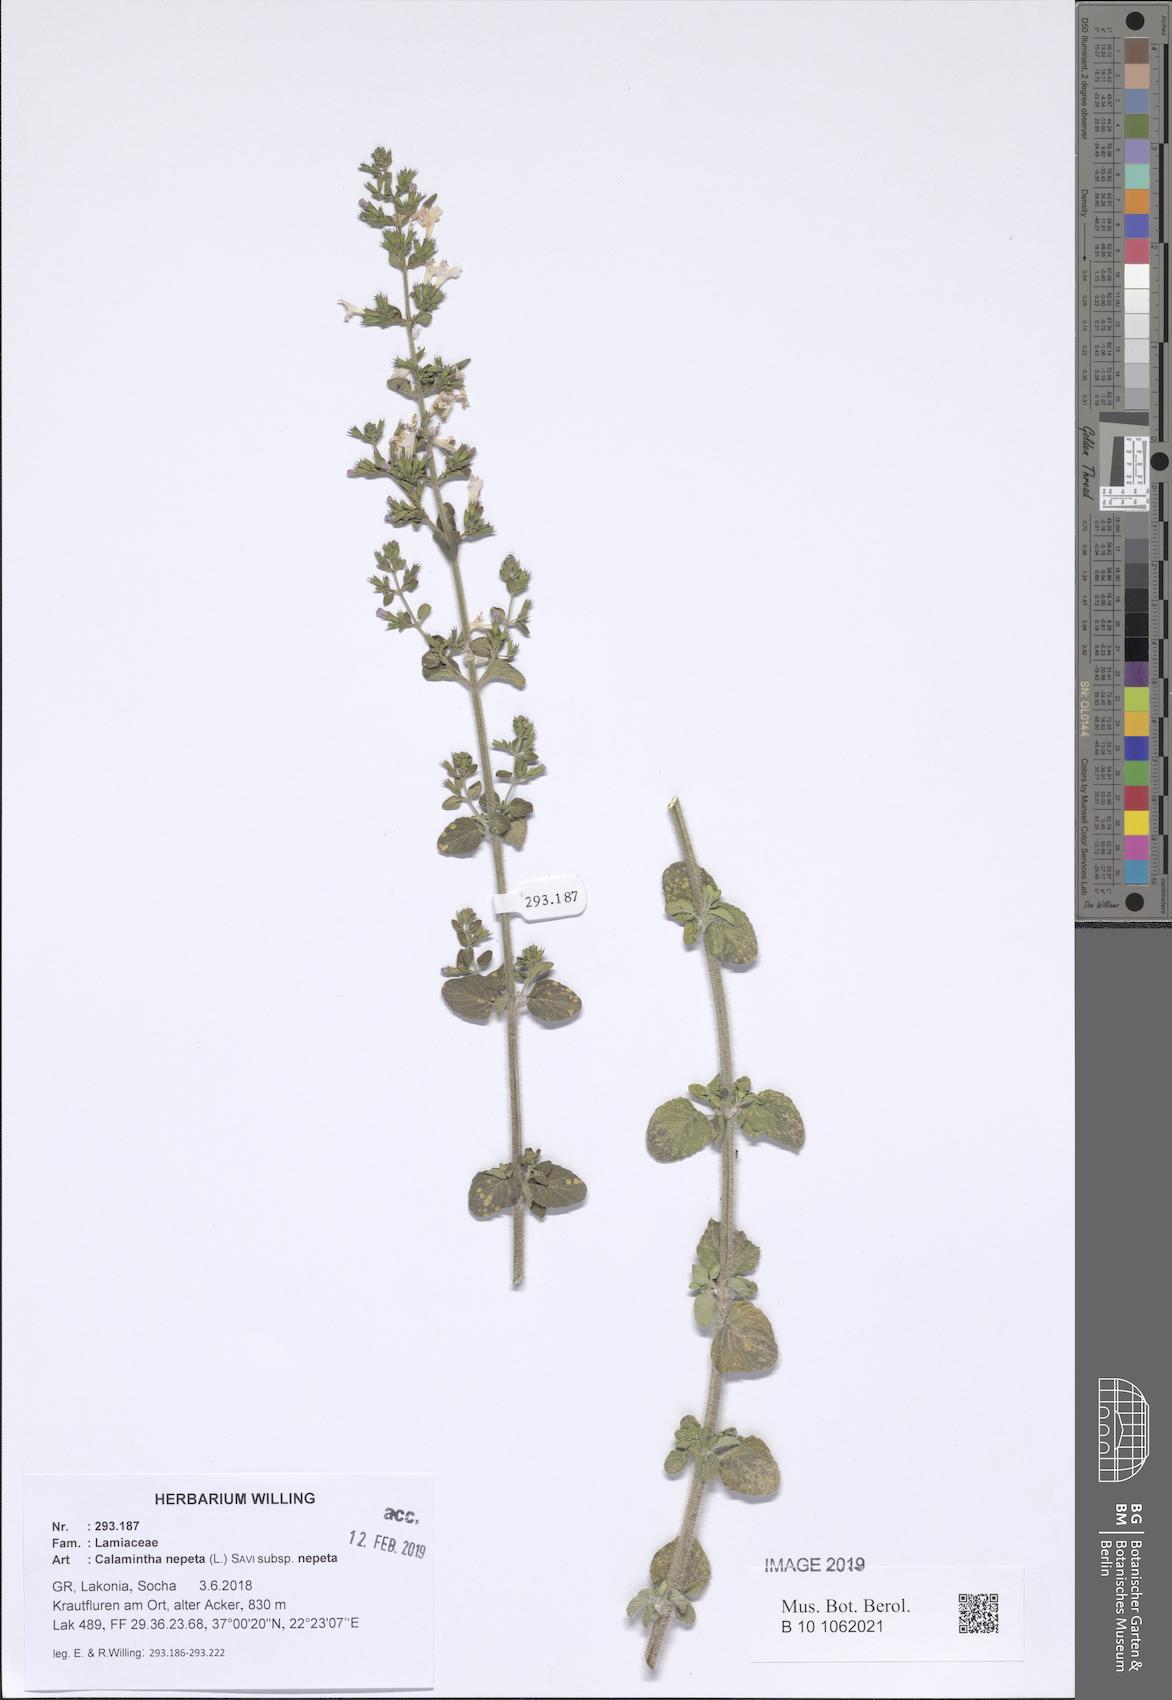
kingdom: Plantae
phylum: Tracheophyta
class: Magnoliopsida
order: Lamiales
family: Lamiaceae
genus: Clinopodium
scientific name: Clinopodium nepeta
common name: Lesser calamint
